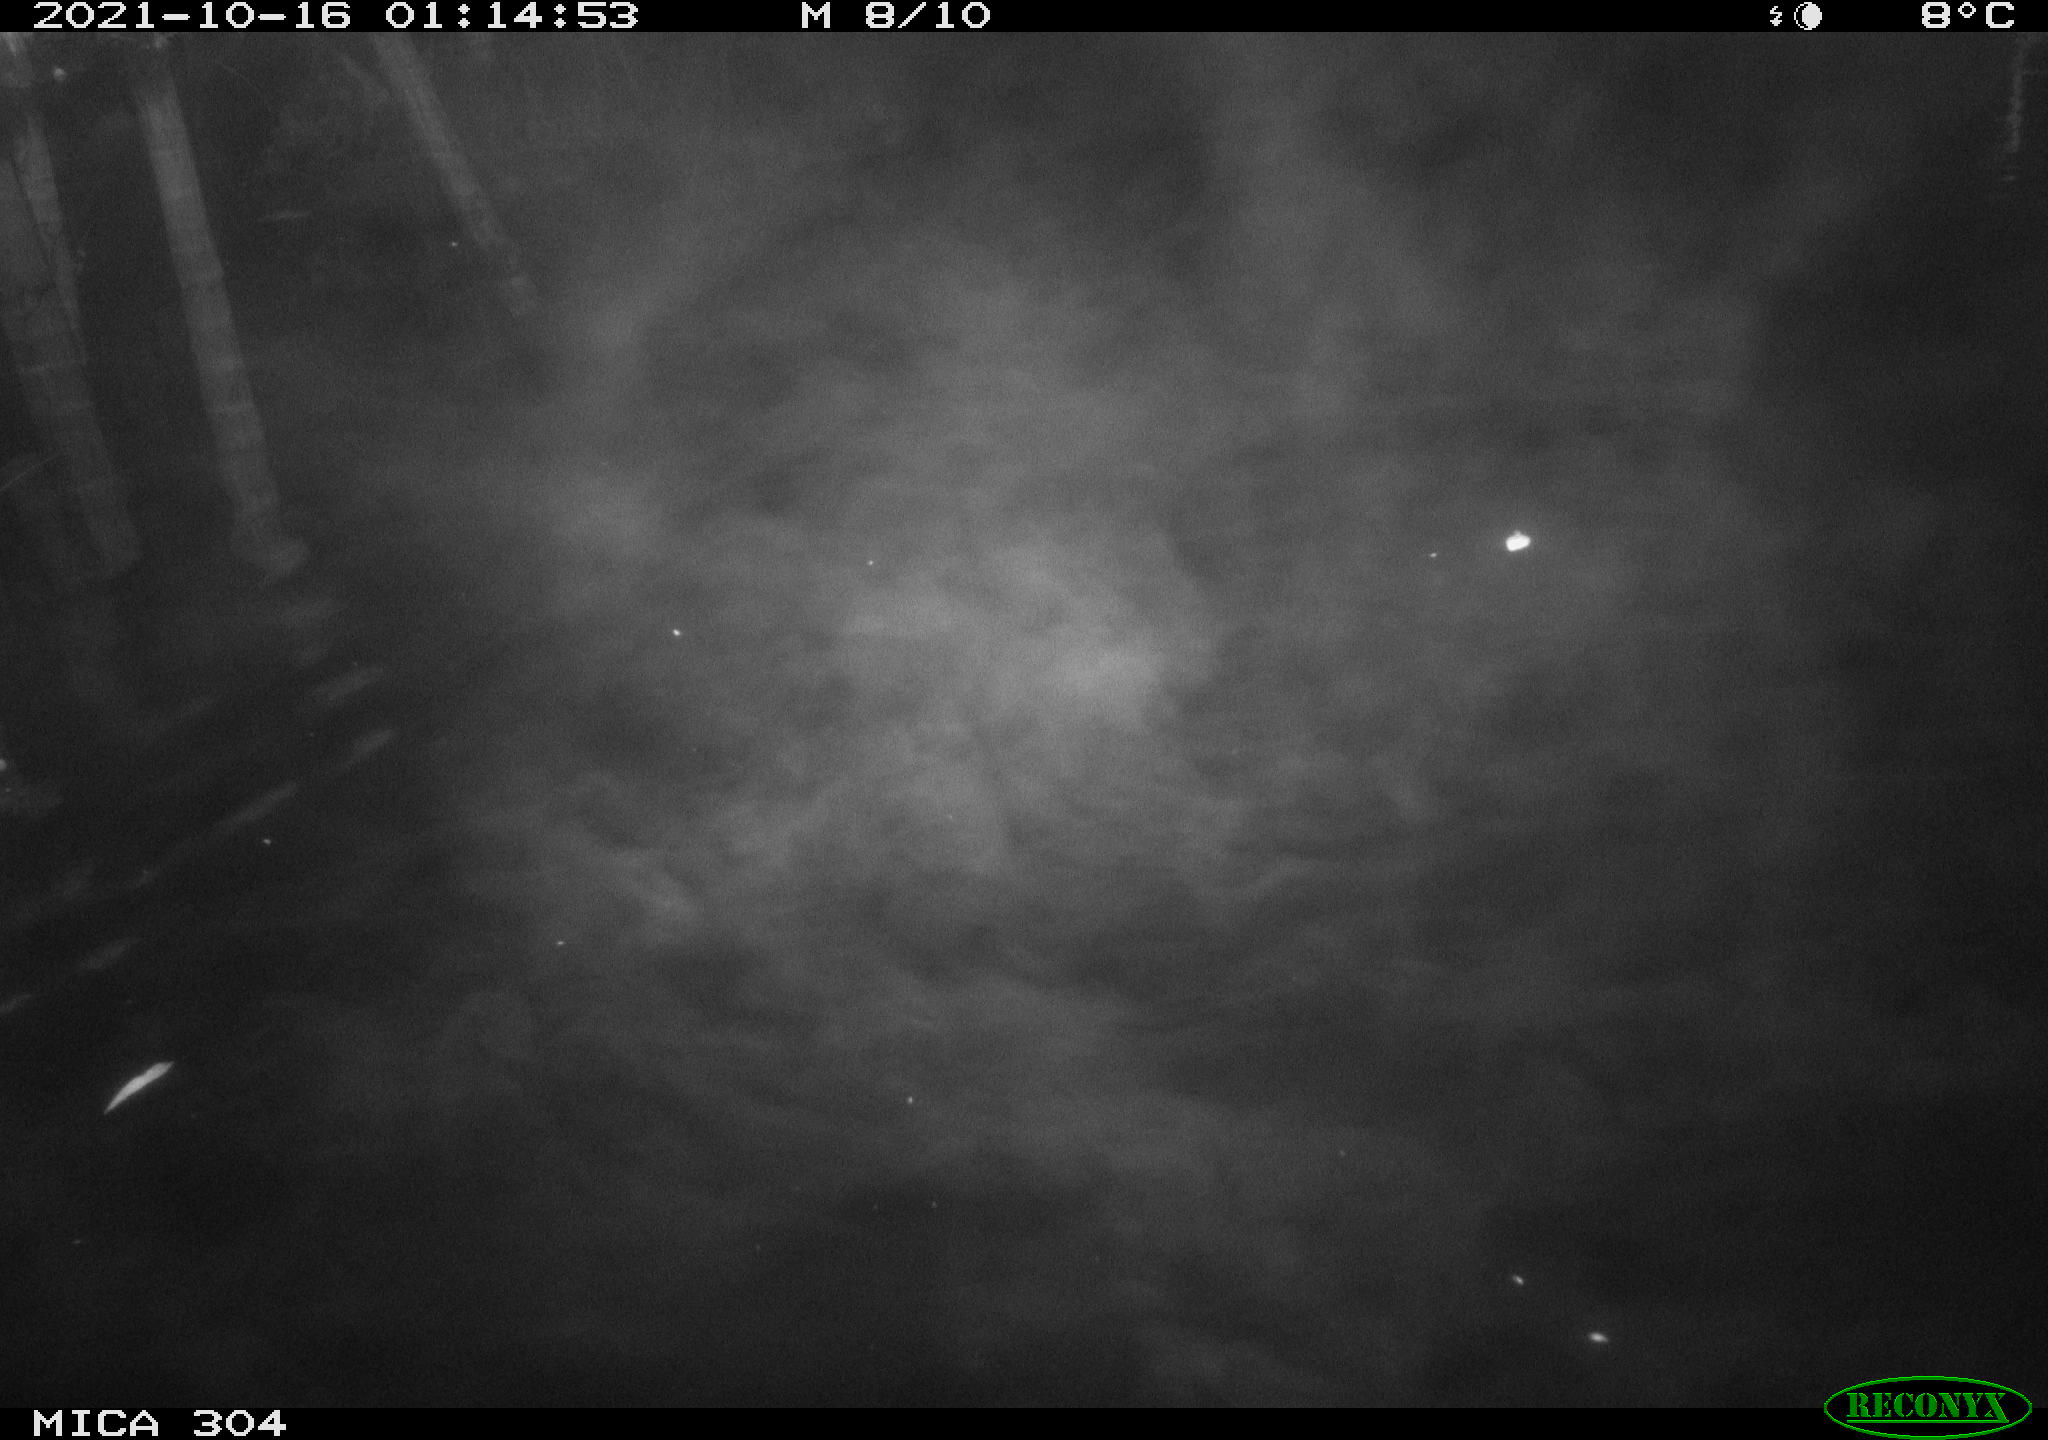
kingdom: Animalia
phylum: Chordata
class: Mammalia
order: Rodentia
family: Cricetidae
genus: Ondatra
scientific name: Ondatra zibethicus
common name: Muskrat
